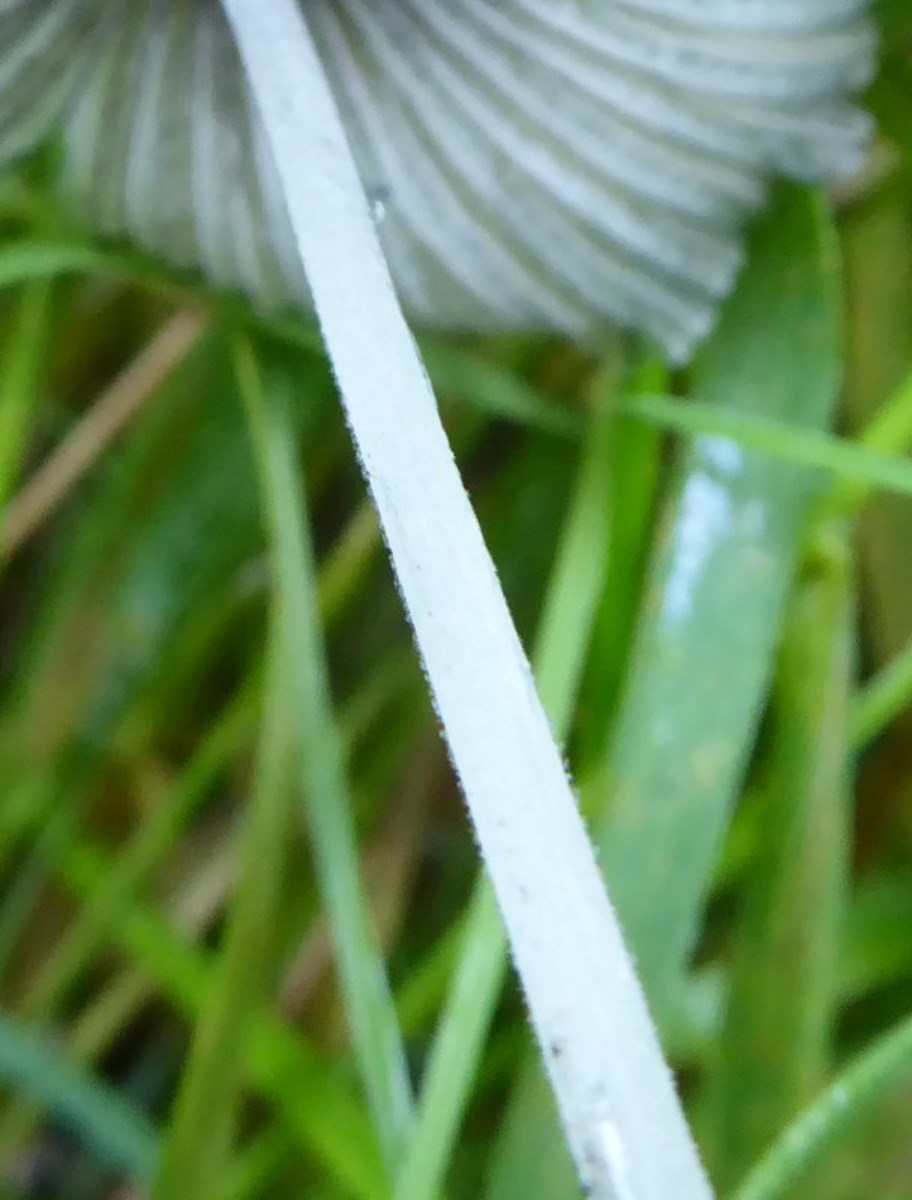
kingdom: Fungi
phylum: Basidiomycota
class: Agaricomycetes
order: Agaricales
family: Psathyrellaceae
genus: Coprinopsis
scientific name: Coprinopsis lagopus
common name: dunstokket blækhat
